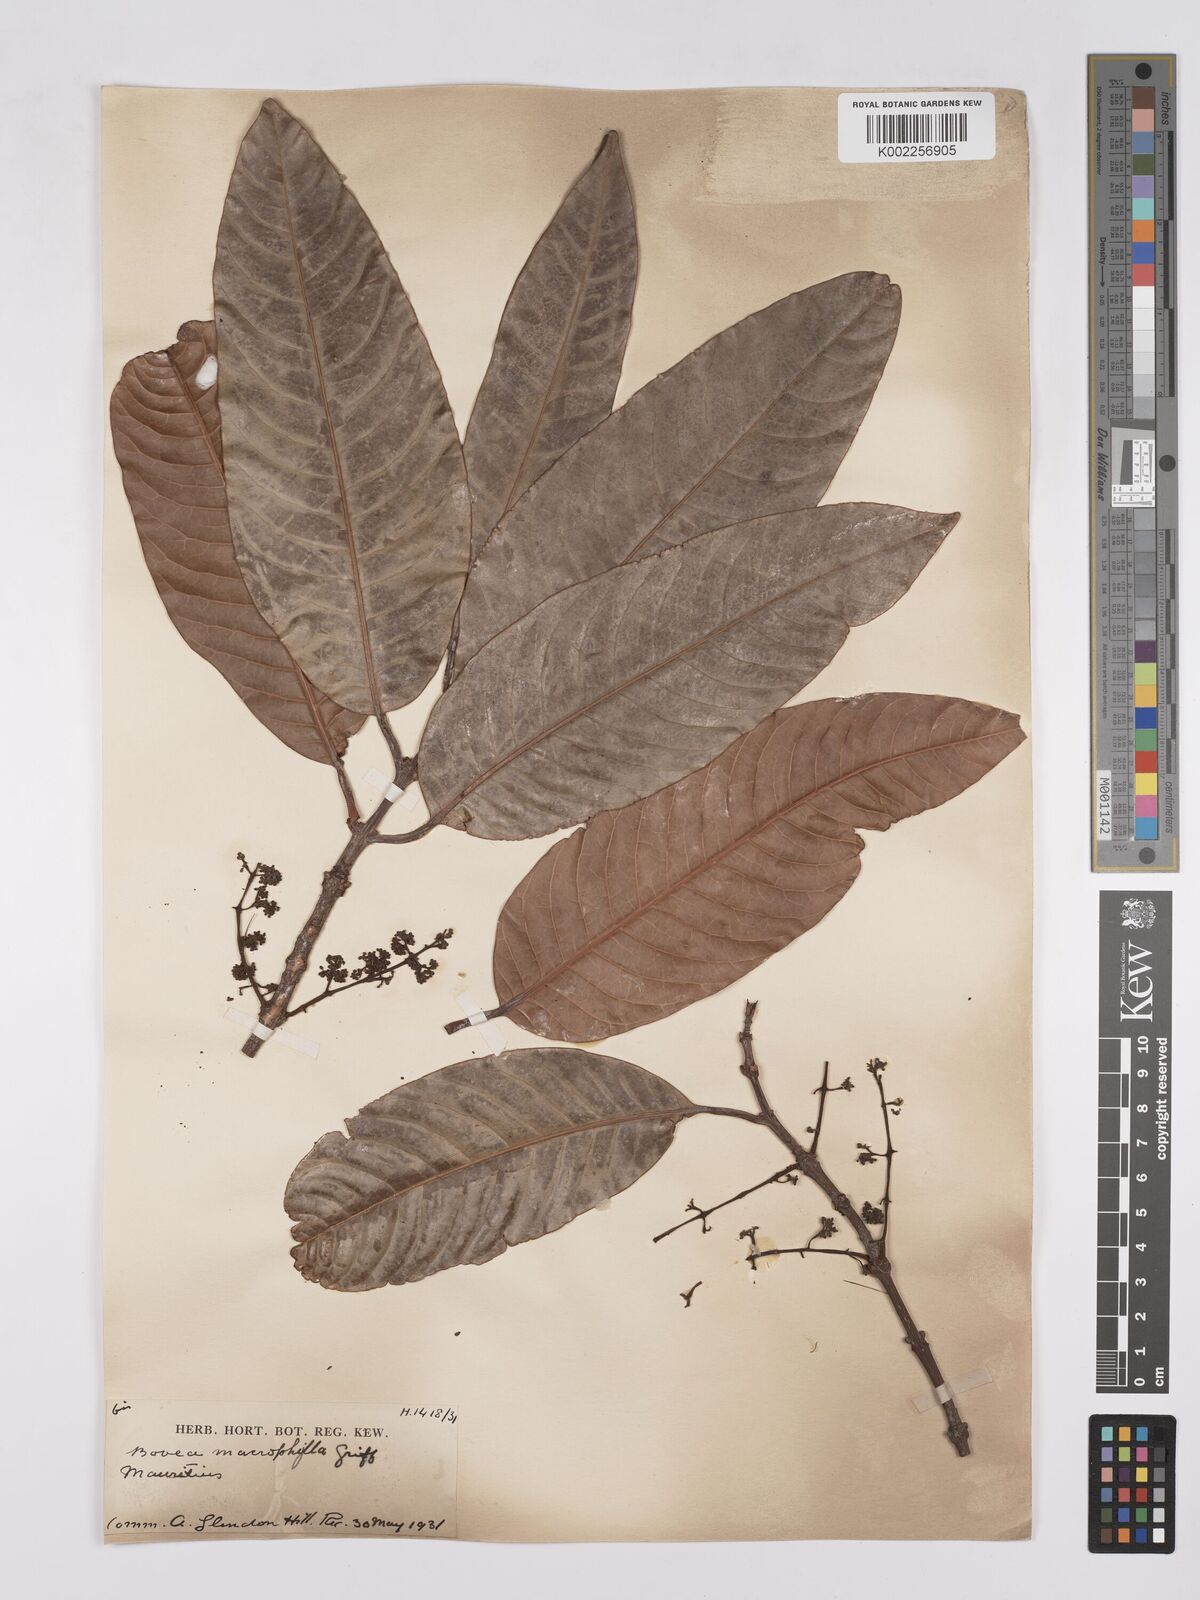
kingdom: Plantae
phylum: Tracheophyta
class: Magnoliopsida
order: Sapindales
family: Anacardiaceae
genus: Bouea
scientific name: Bouea macrophylla
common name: Gandaria
